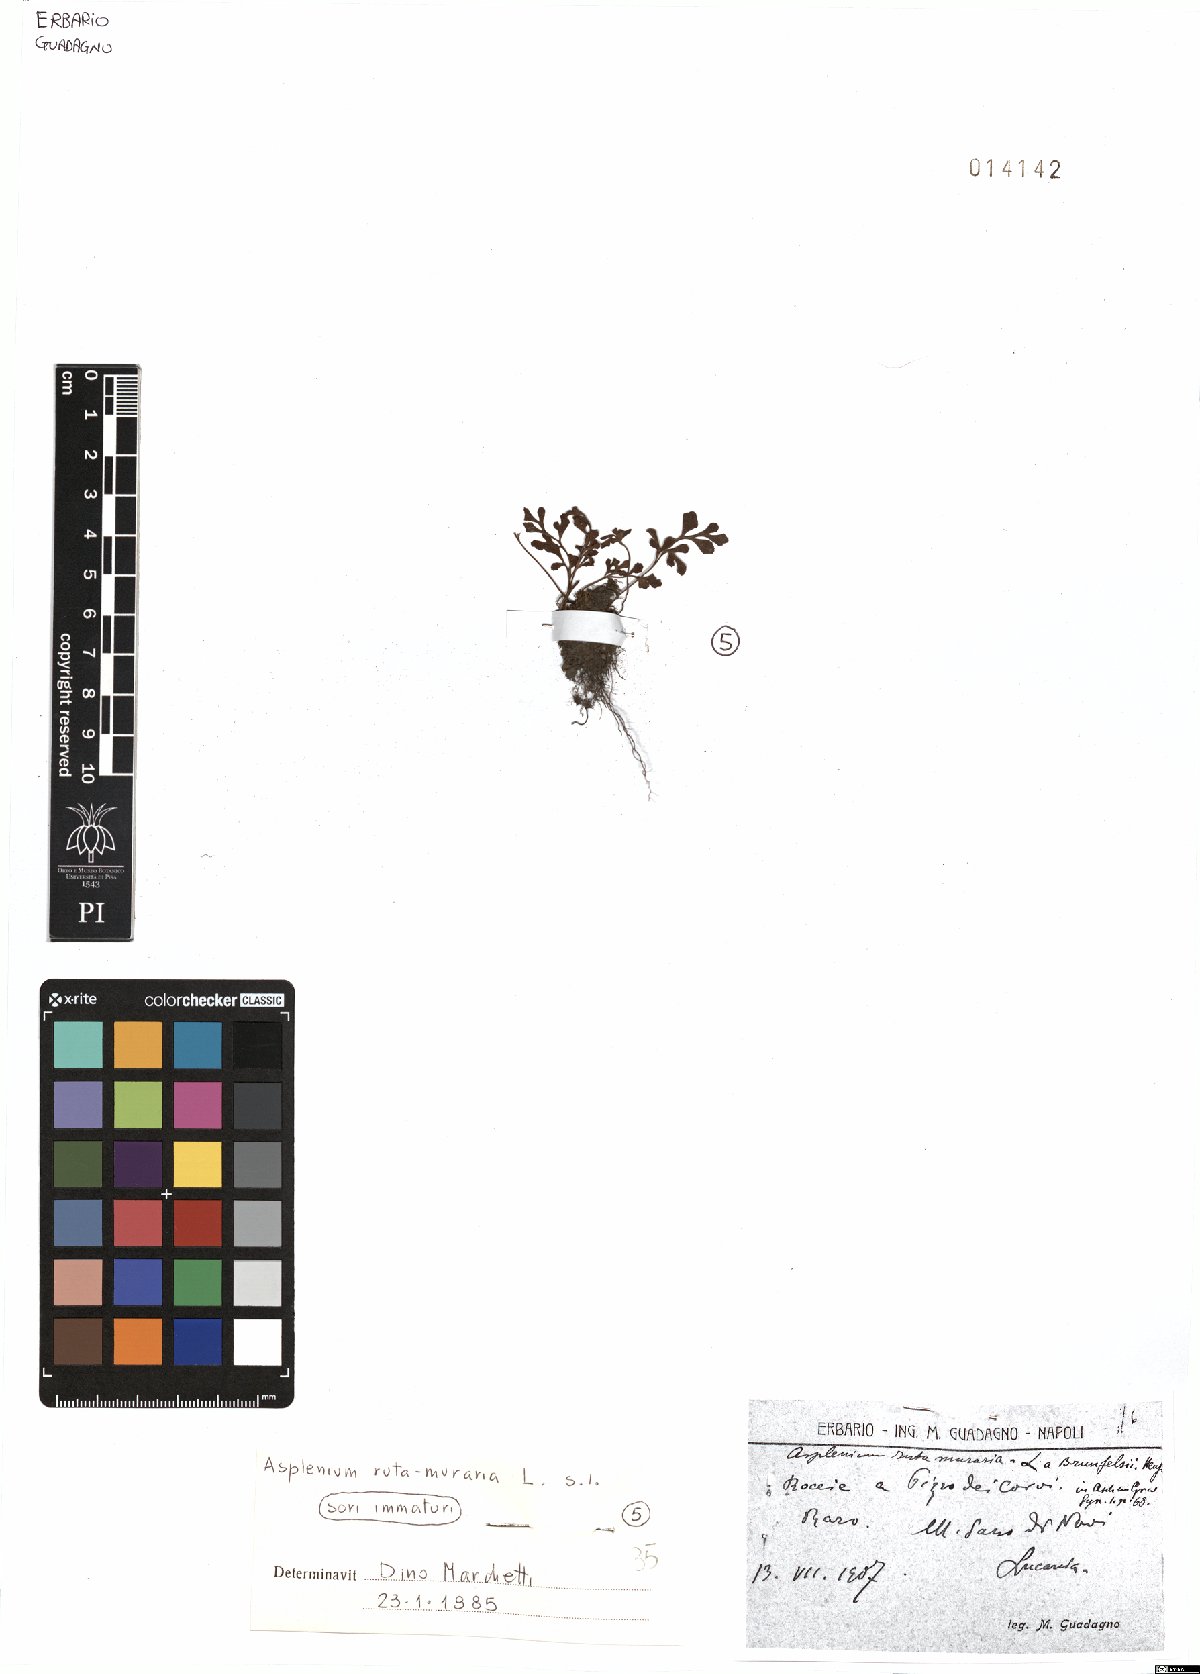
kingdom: Plantae
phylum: Tracheophyta
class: Polypodiopsida
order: Polypodiales
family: Aspleniaceae
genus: Asplenium
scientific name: Asplenium ruta-muraria
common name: Wall-rue
